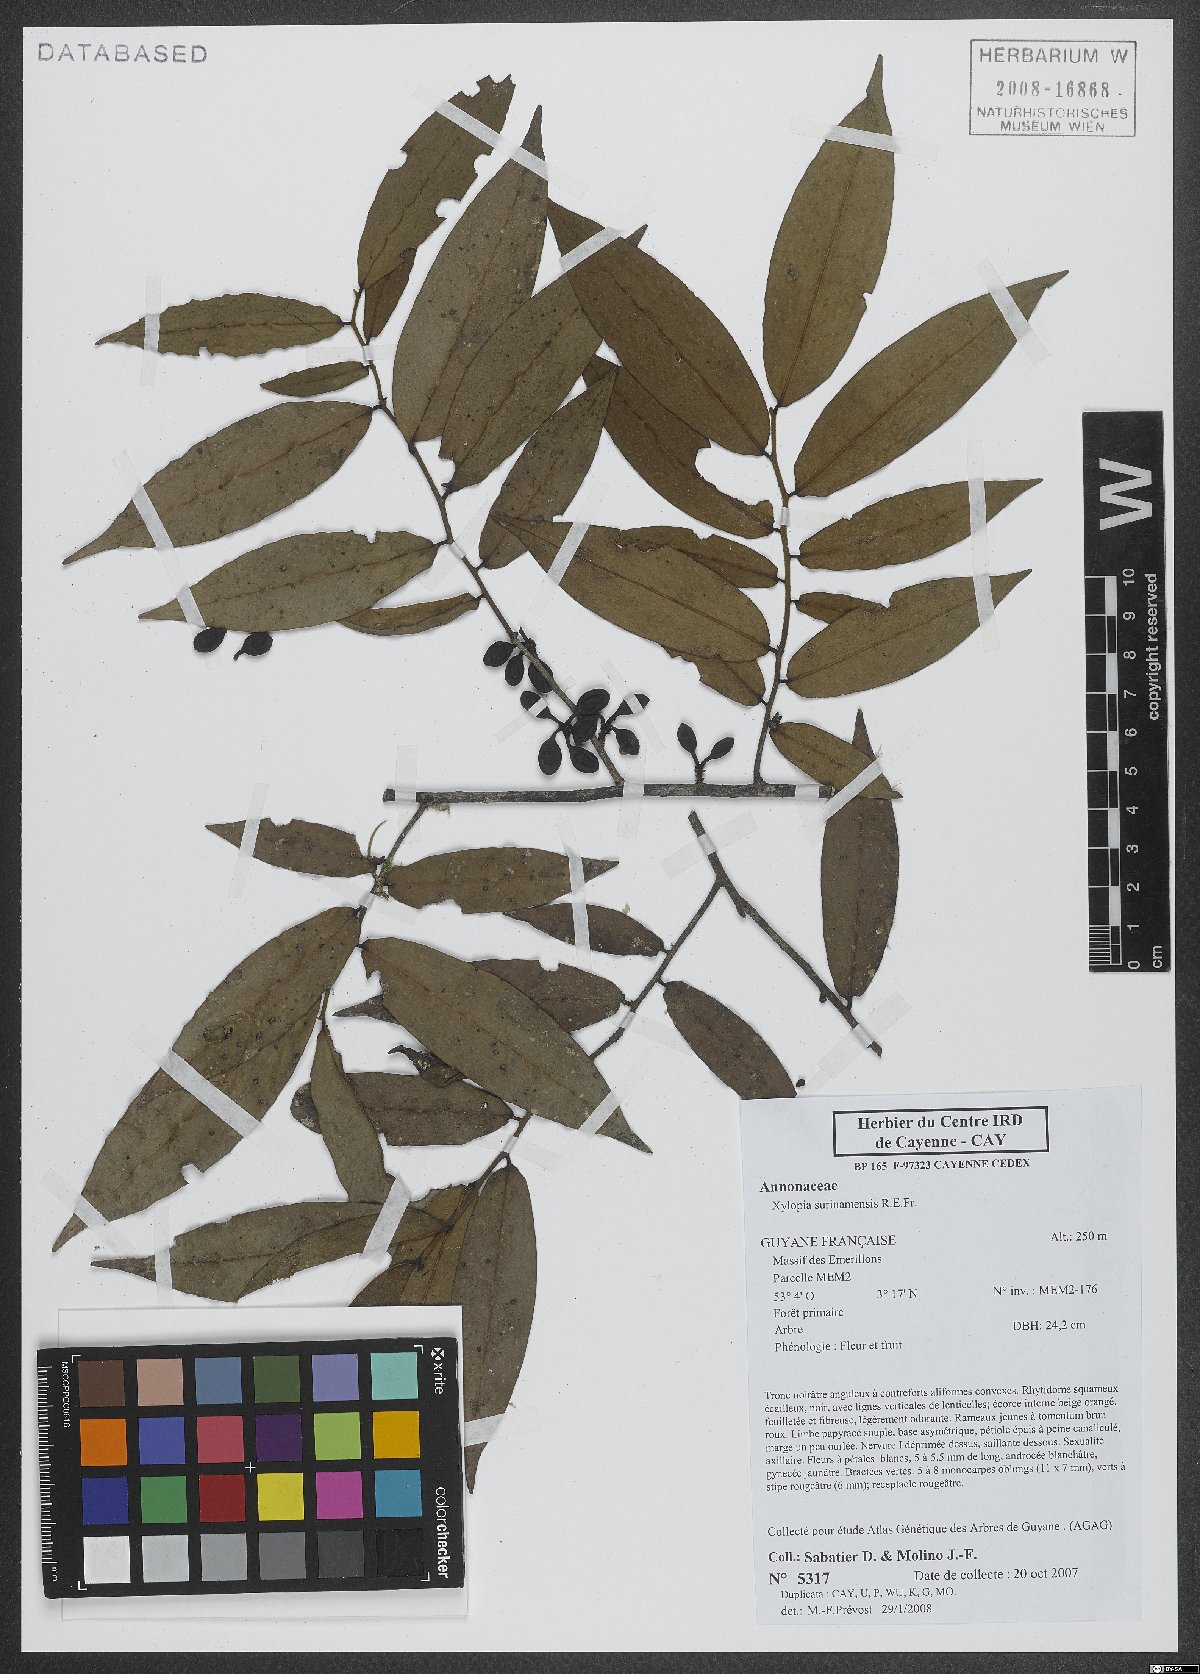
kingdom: Plantae
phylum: Tracheophyta
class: Magnoliopsida
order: Magnoliales
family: Annonaceae
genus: Xylopia
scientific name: Xylopia surinamensis
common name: Black wepopi
